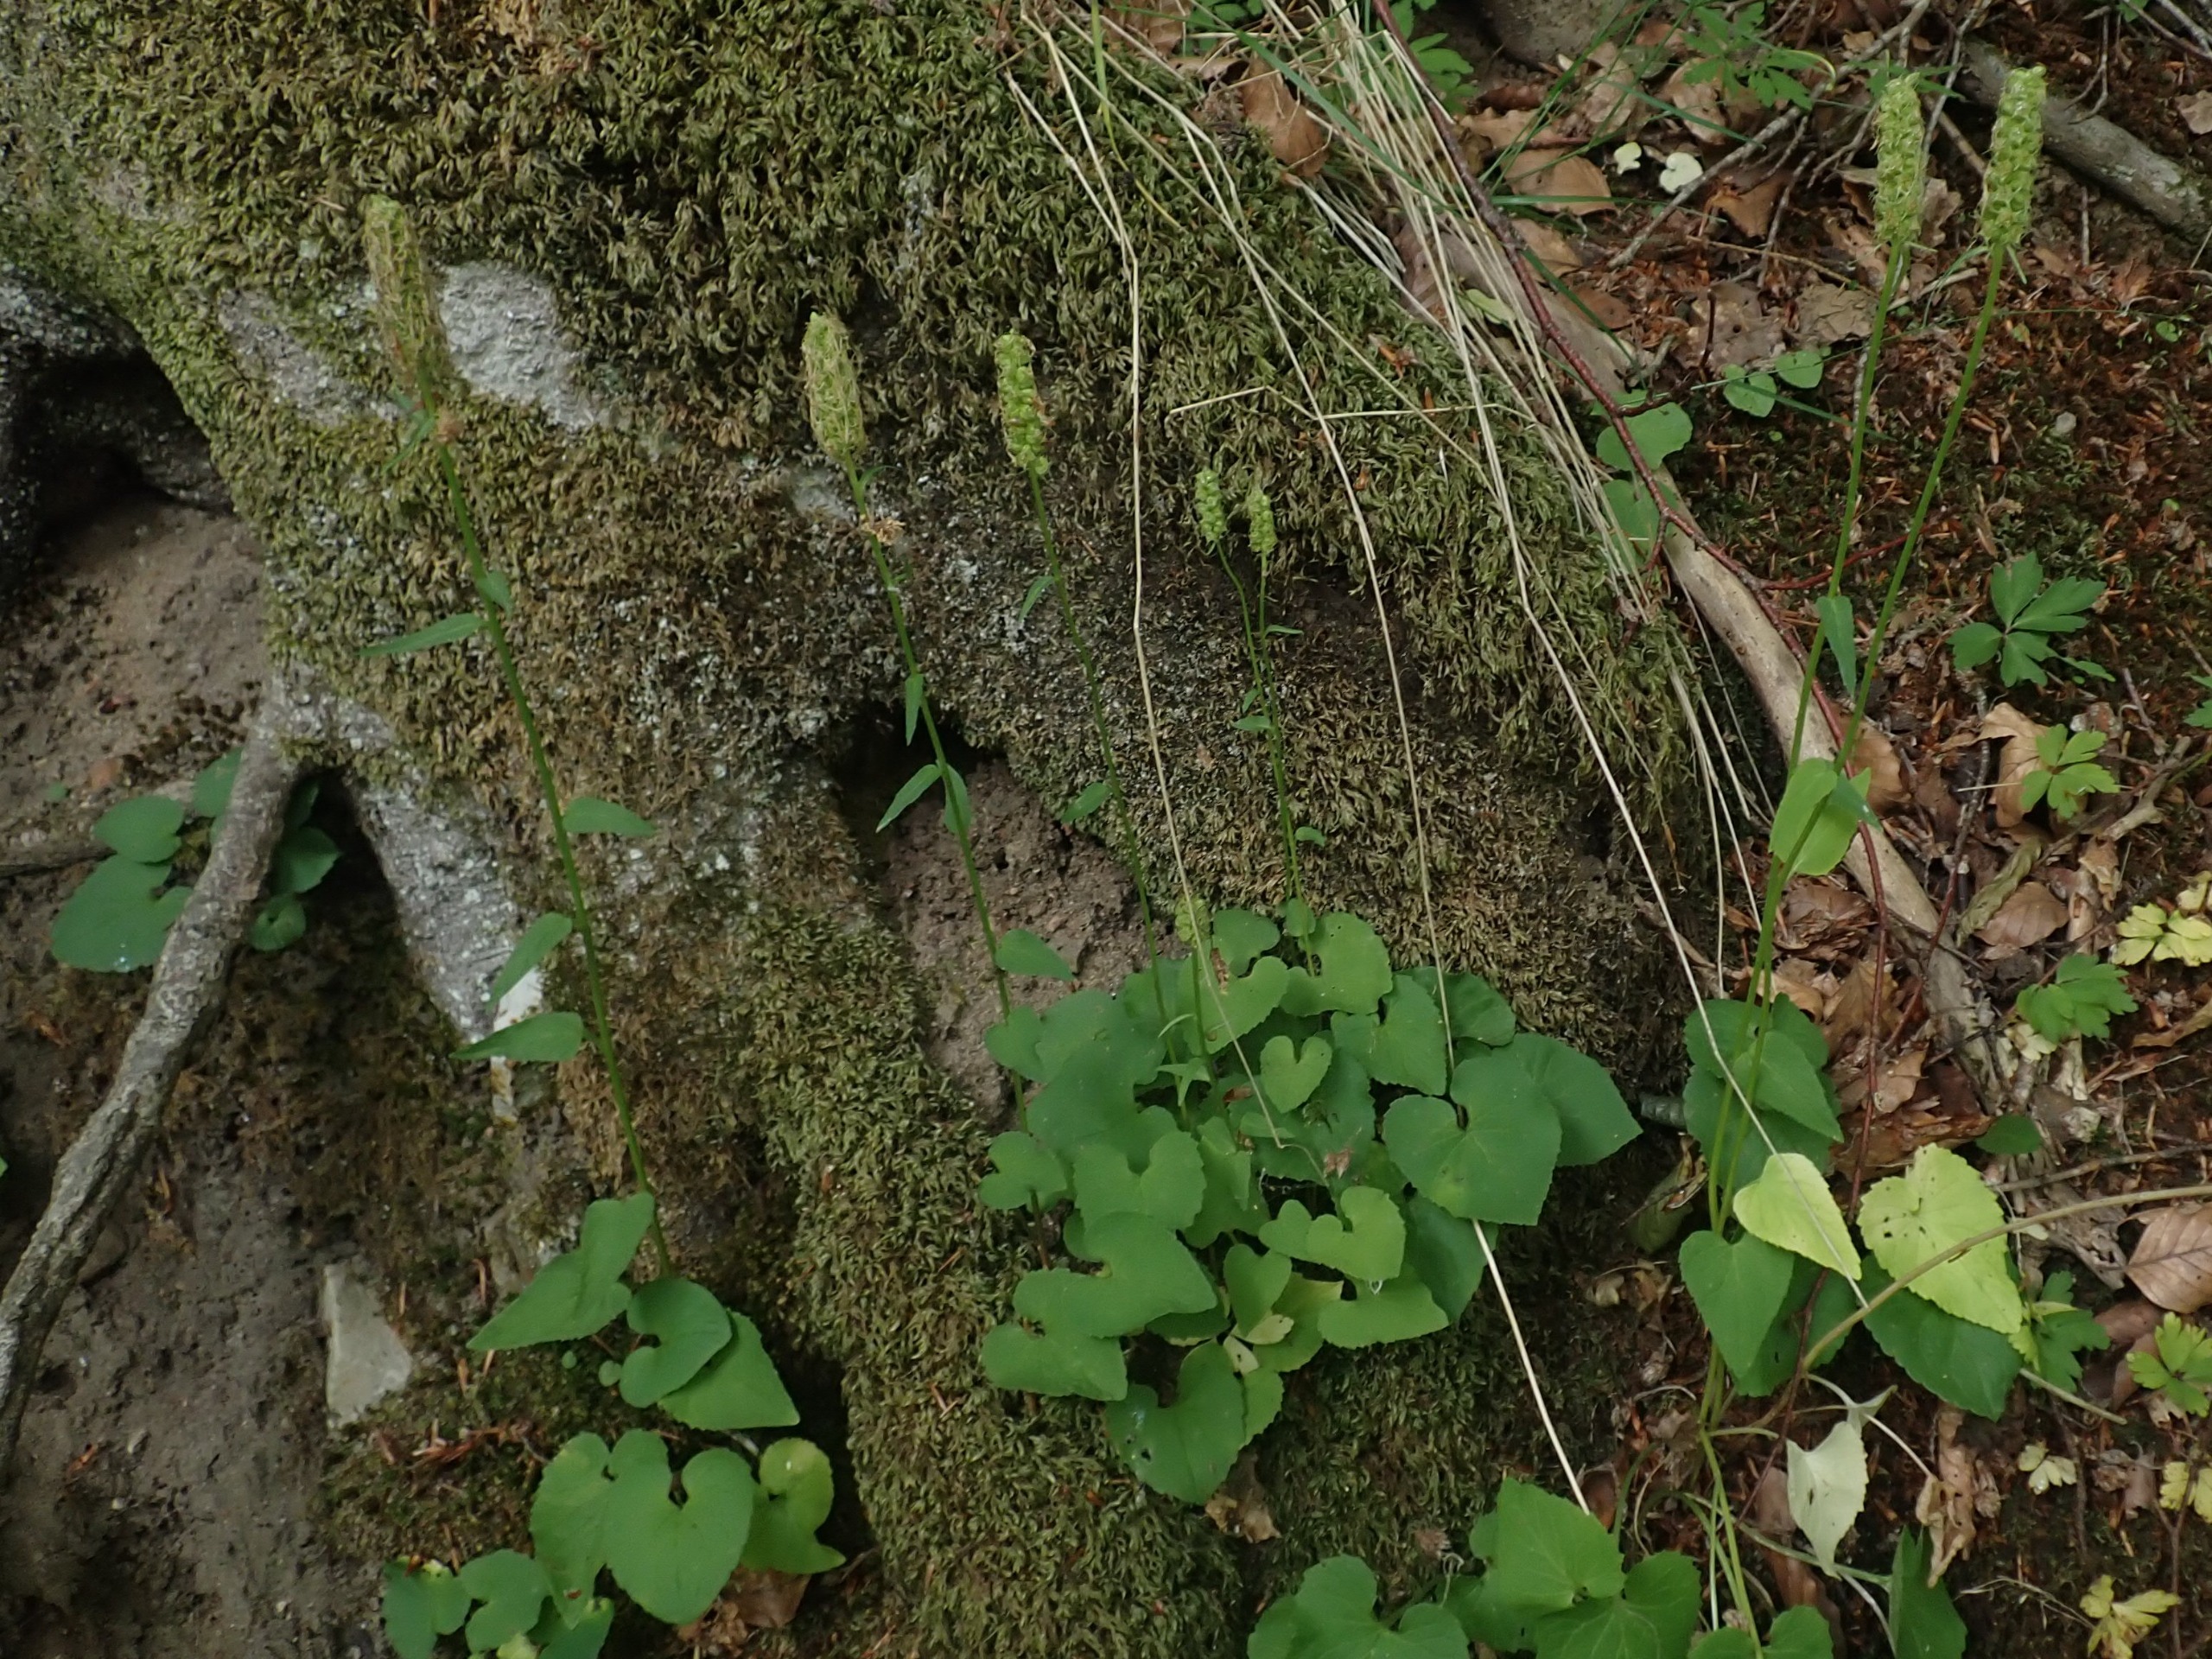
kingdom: Plantae
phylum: Tracheophyta
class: Magnoliopsida
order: Asterales
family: Campanulaceae
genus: Phyteuma
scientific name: Phyteuma spicatum
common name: Aks-rapunsel
